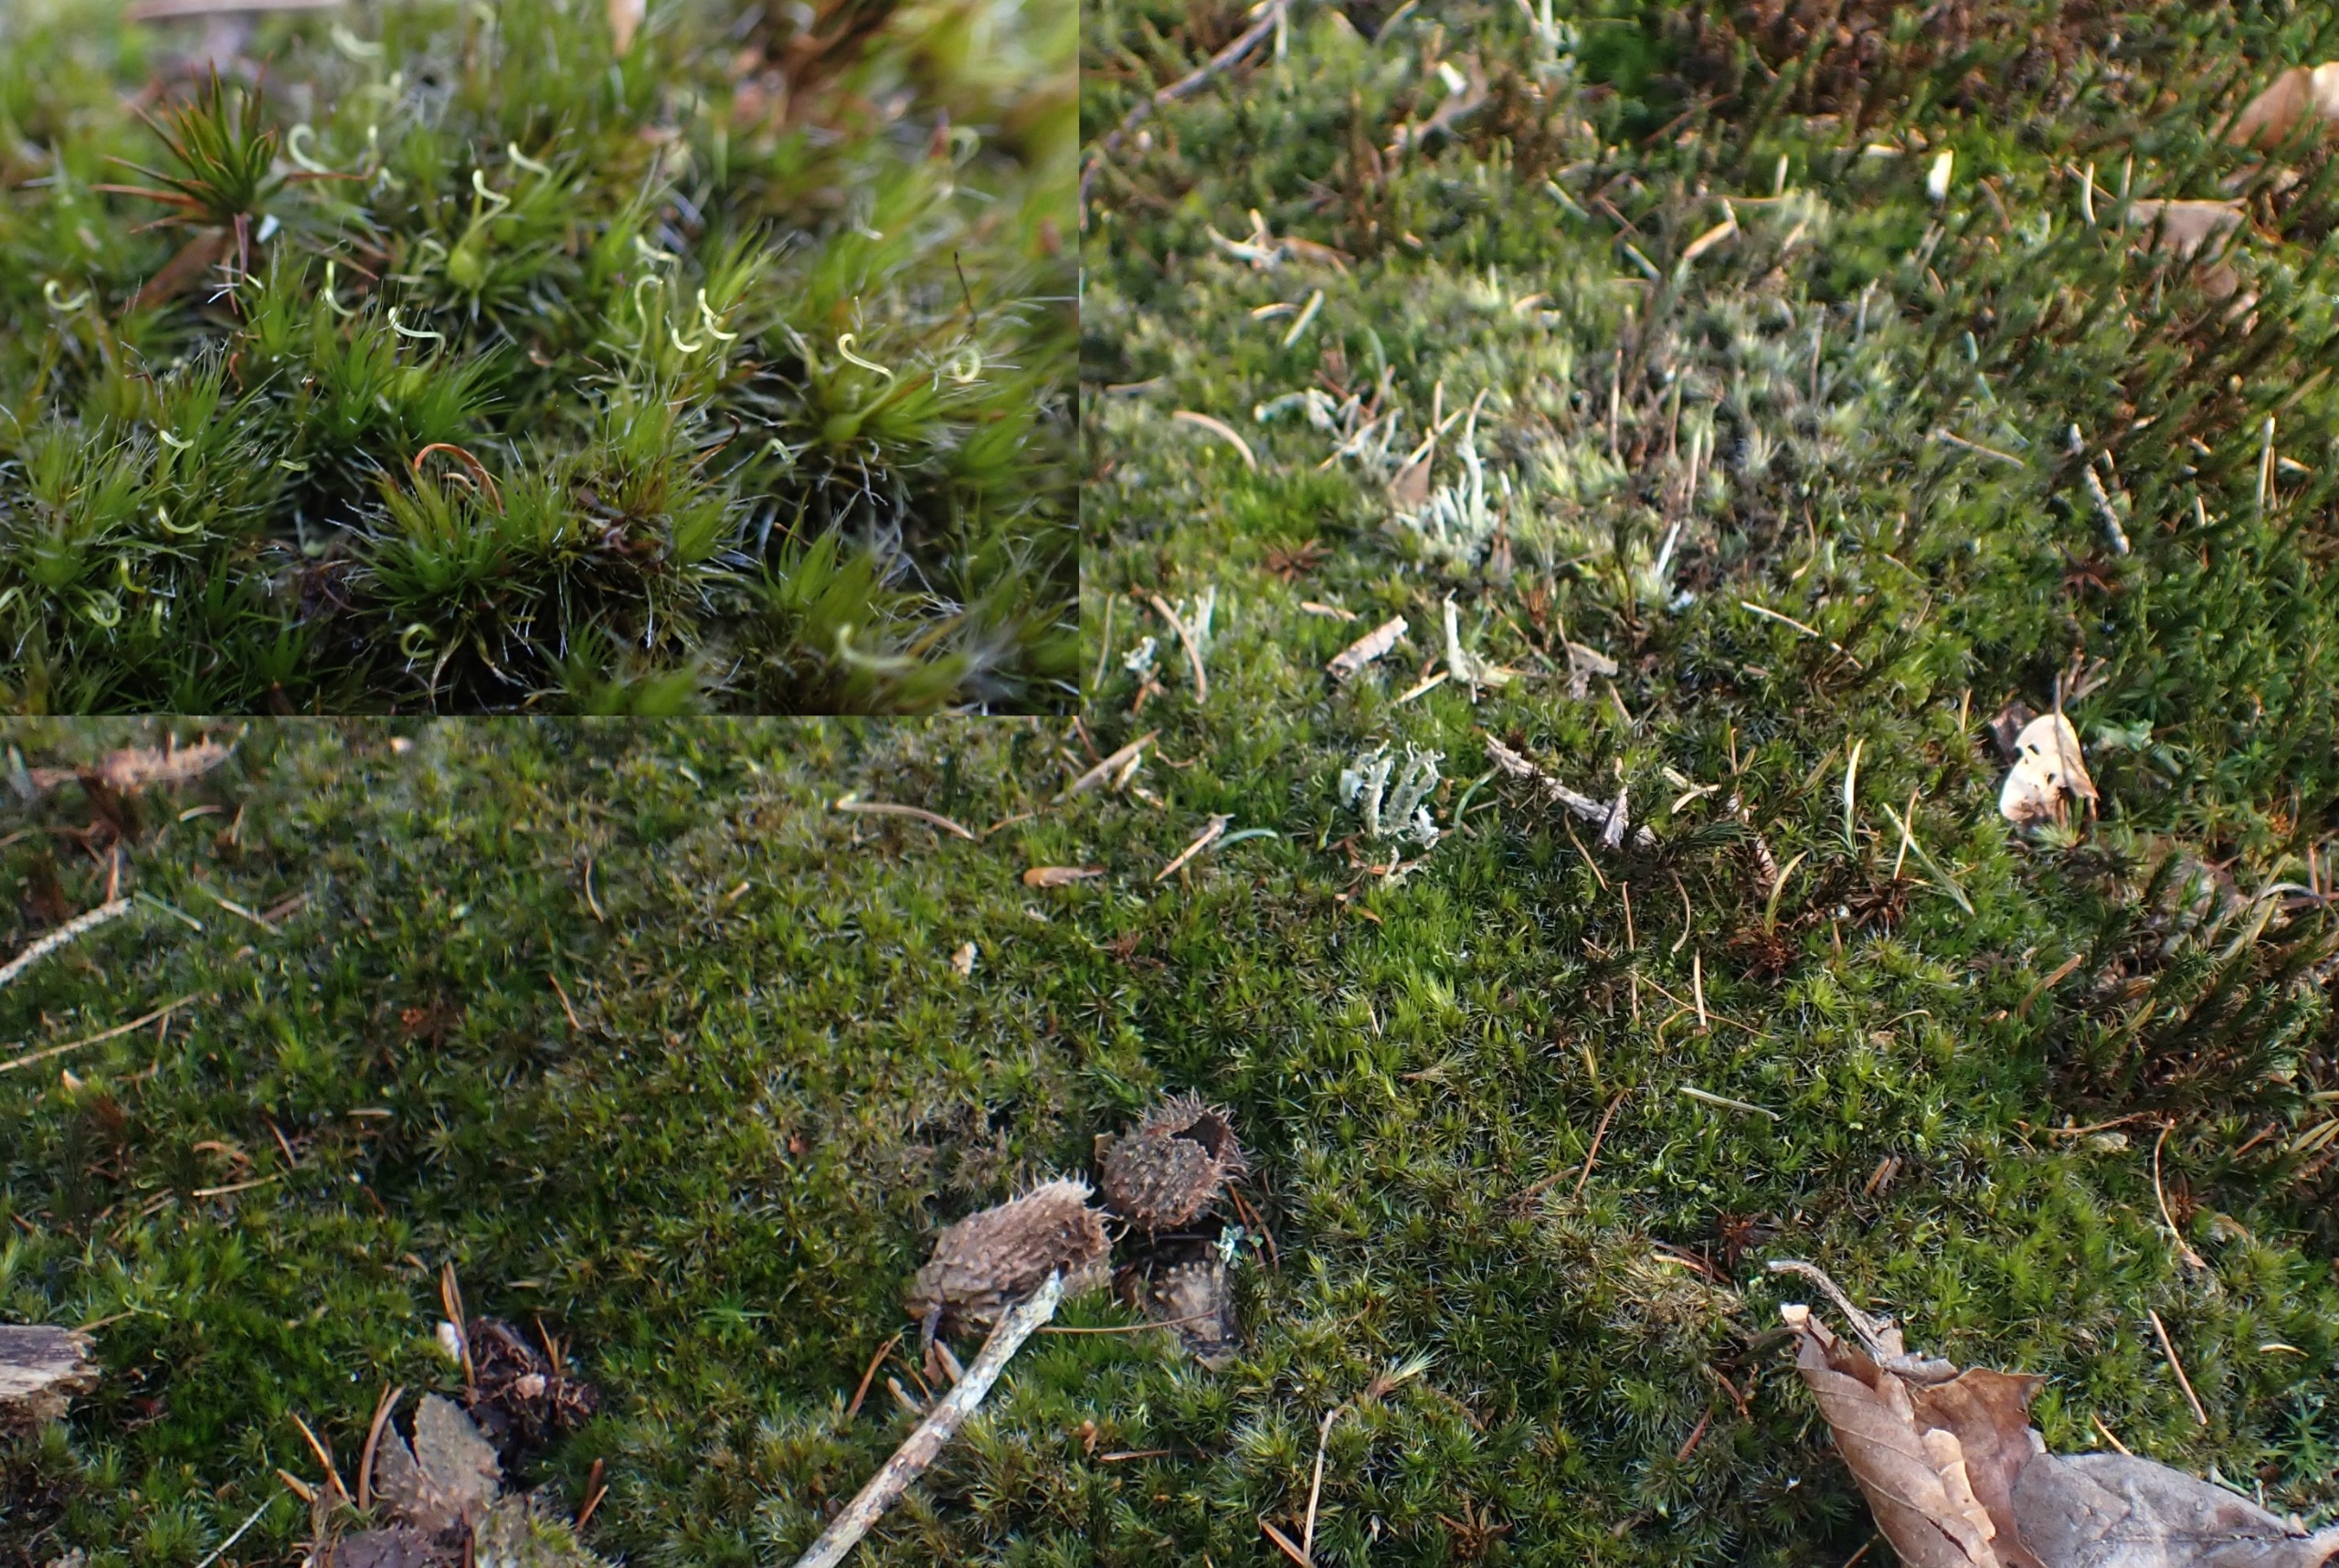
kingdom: Plantae
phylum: Bryophyta
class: Bryopsida
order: Dicranales
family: Leucobryaceae
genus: Campylopus
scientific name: Campylopus introflexus
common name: Stjerne-bredribbe
